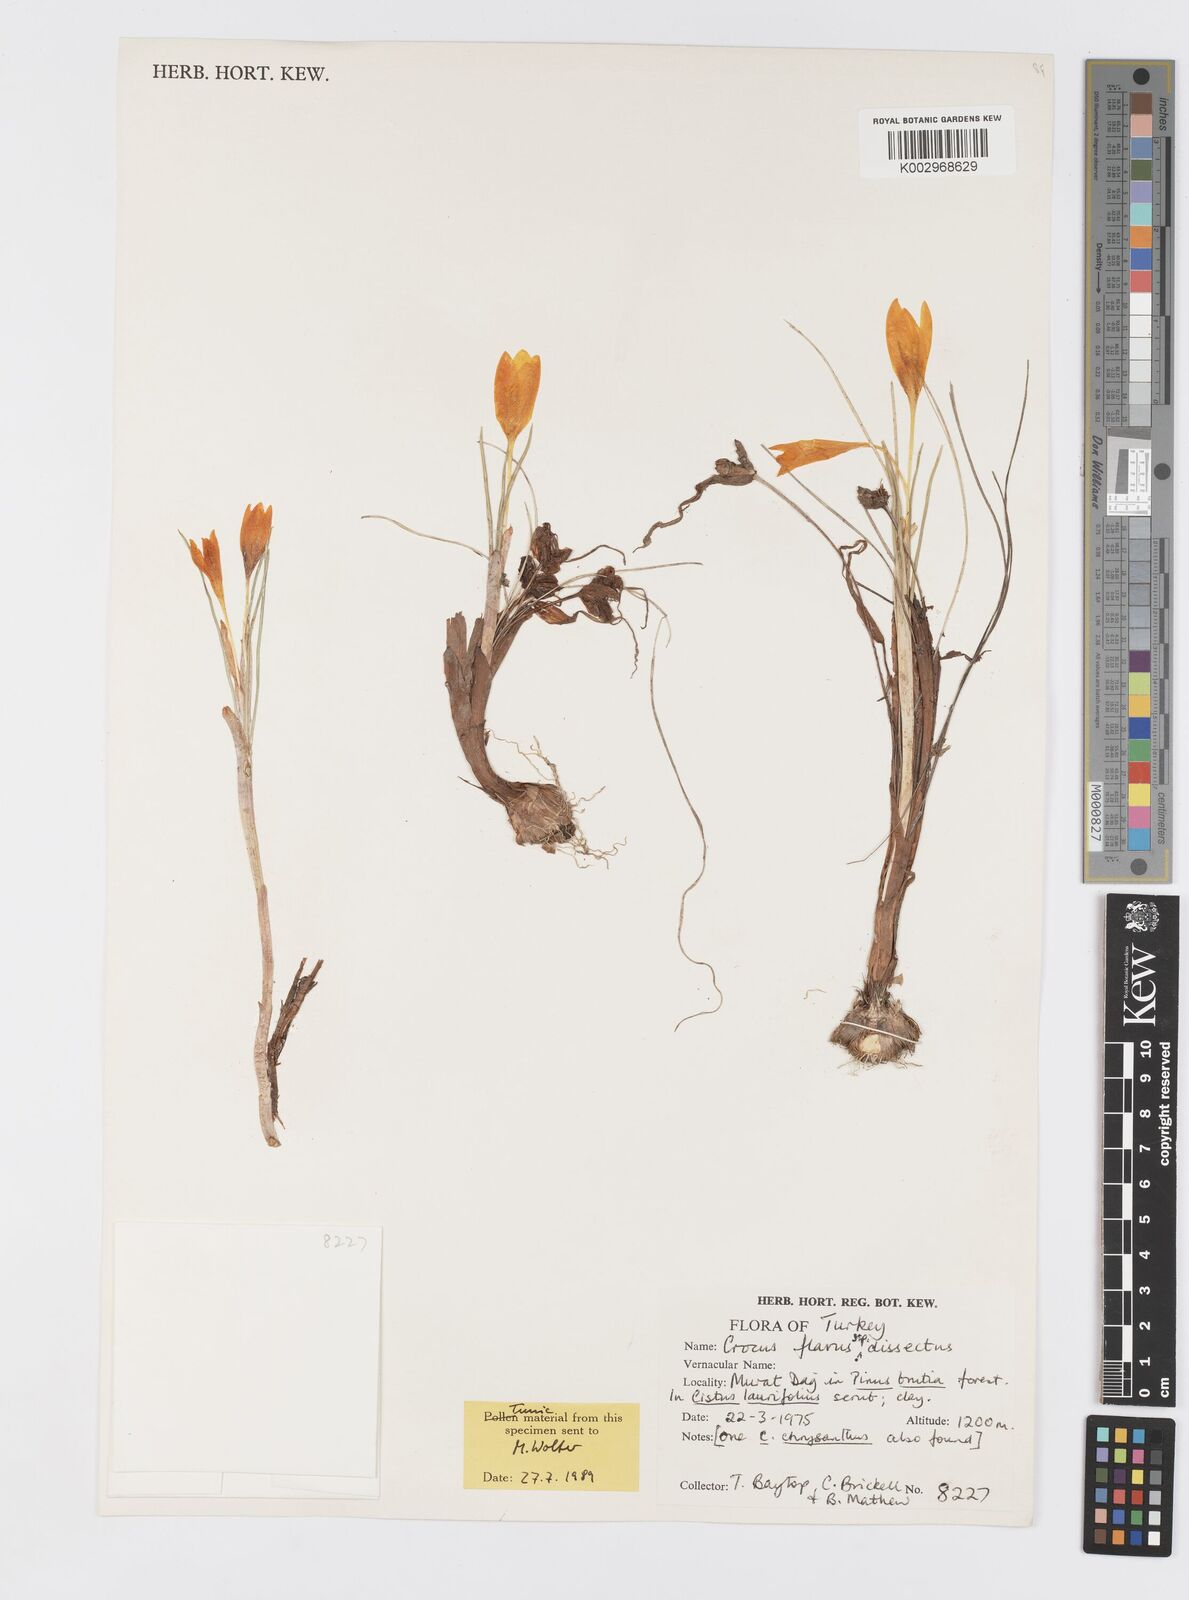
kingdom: Plantae
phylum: Tracheophyta
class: Liliopsida
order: Asparagales
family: Iridaceae
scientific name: Iridaceae
